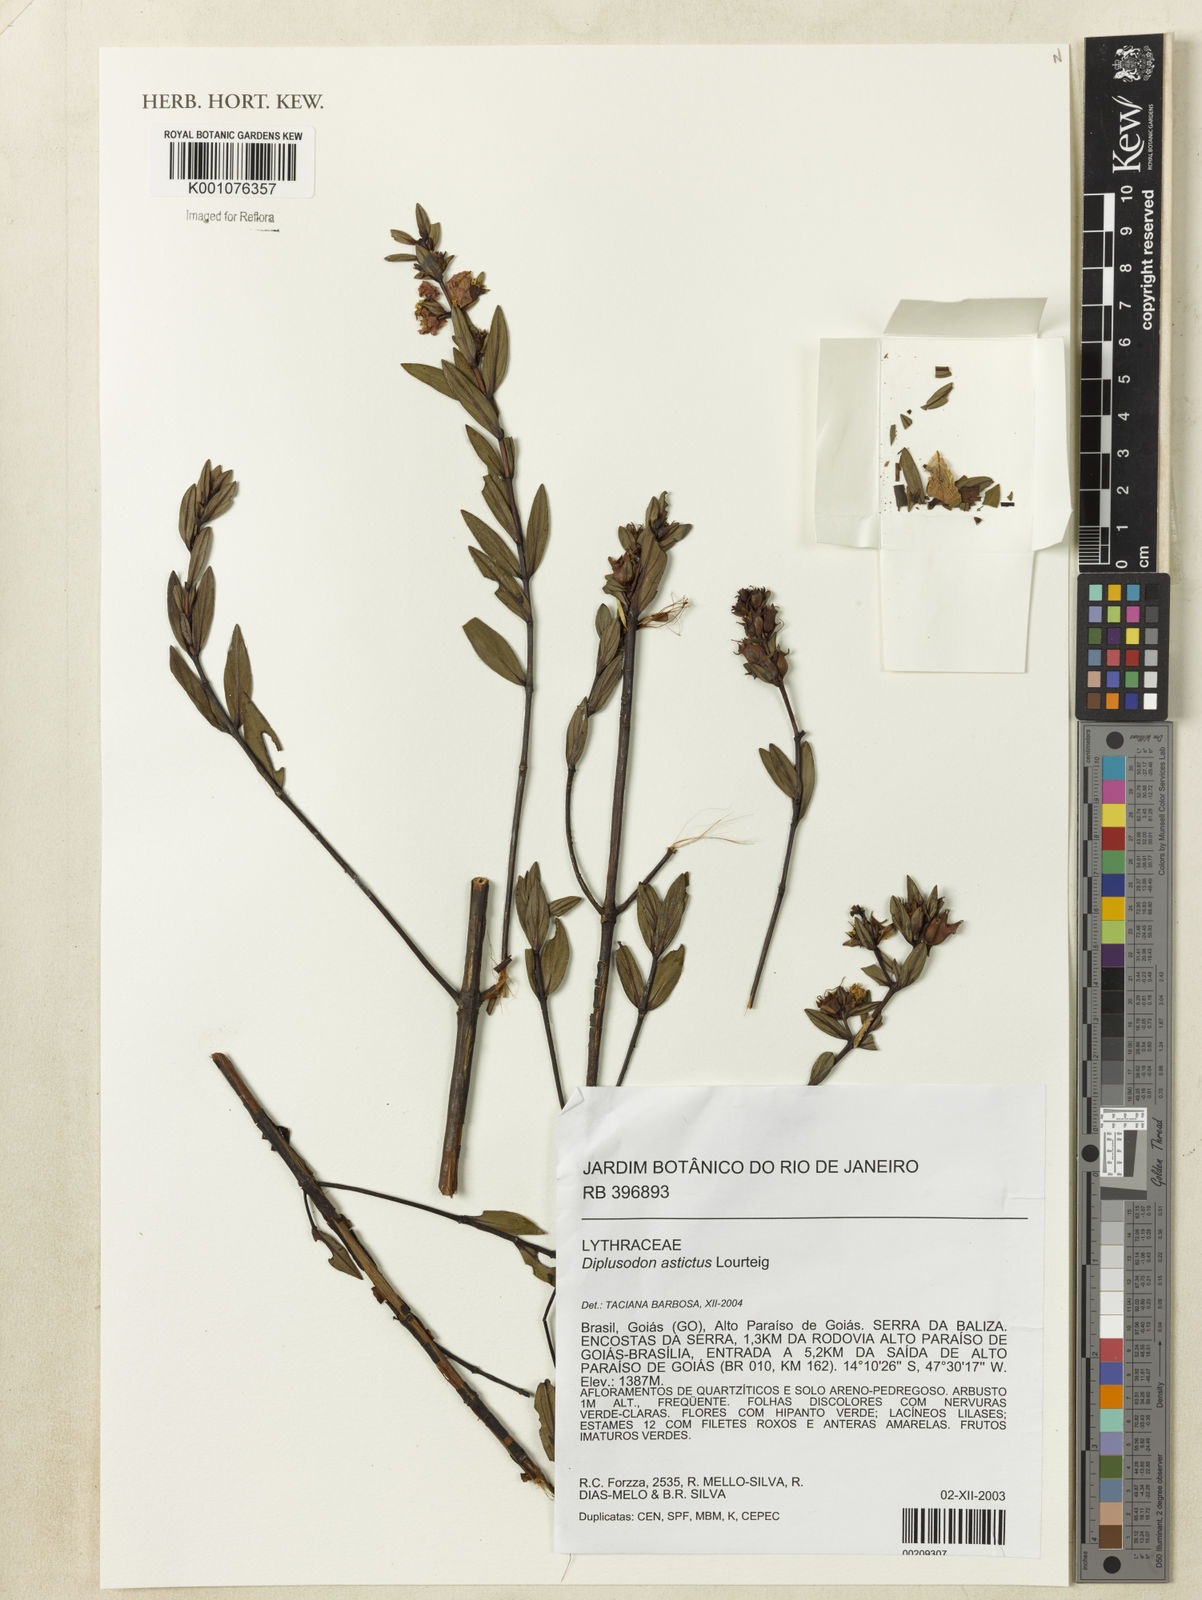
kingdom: Plantae
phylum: Tracheophyta
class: Magnoliopsida
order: Myrtales
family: Lythraceae
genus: Diplusodon
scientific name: Diplusodon astictus
